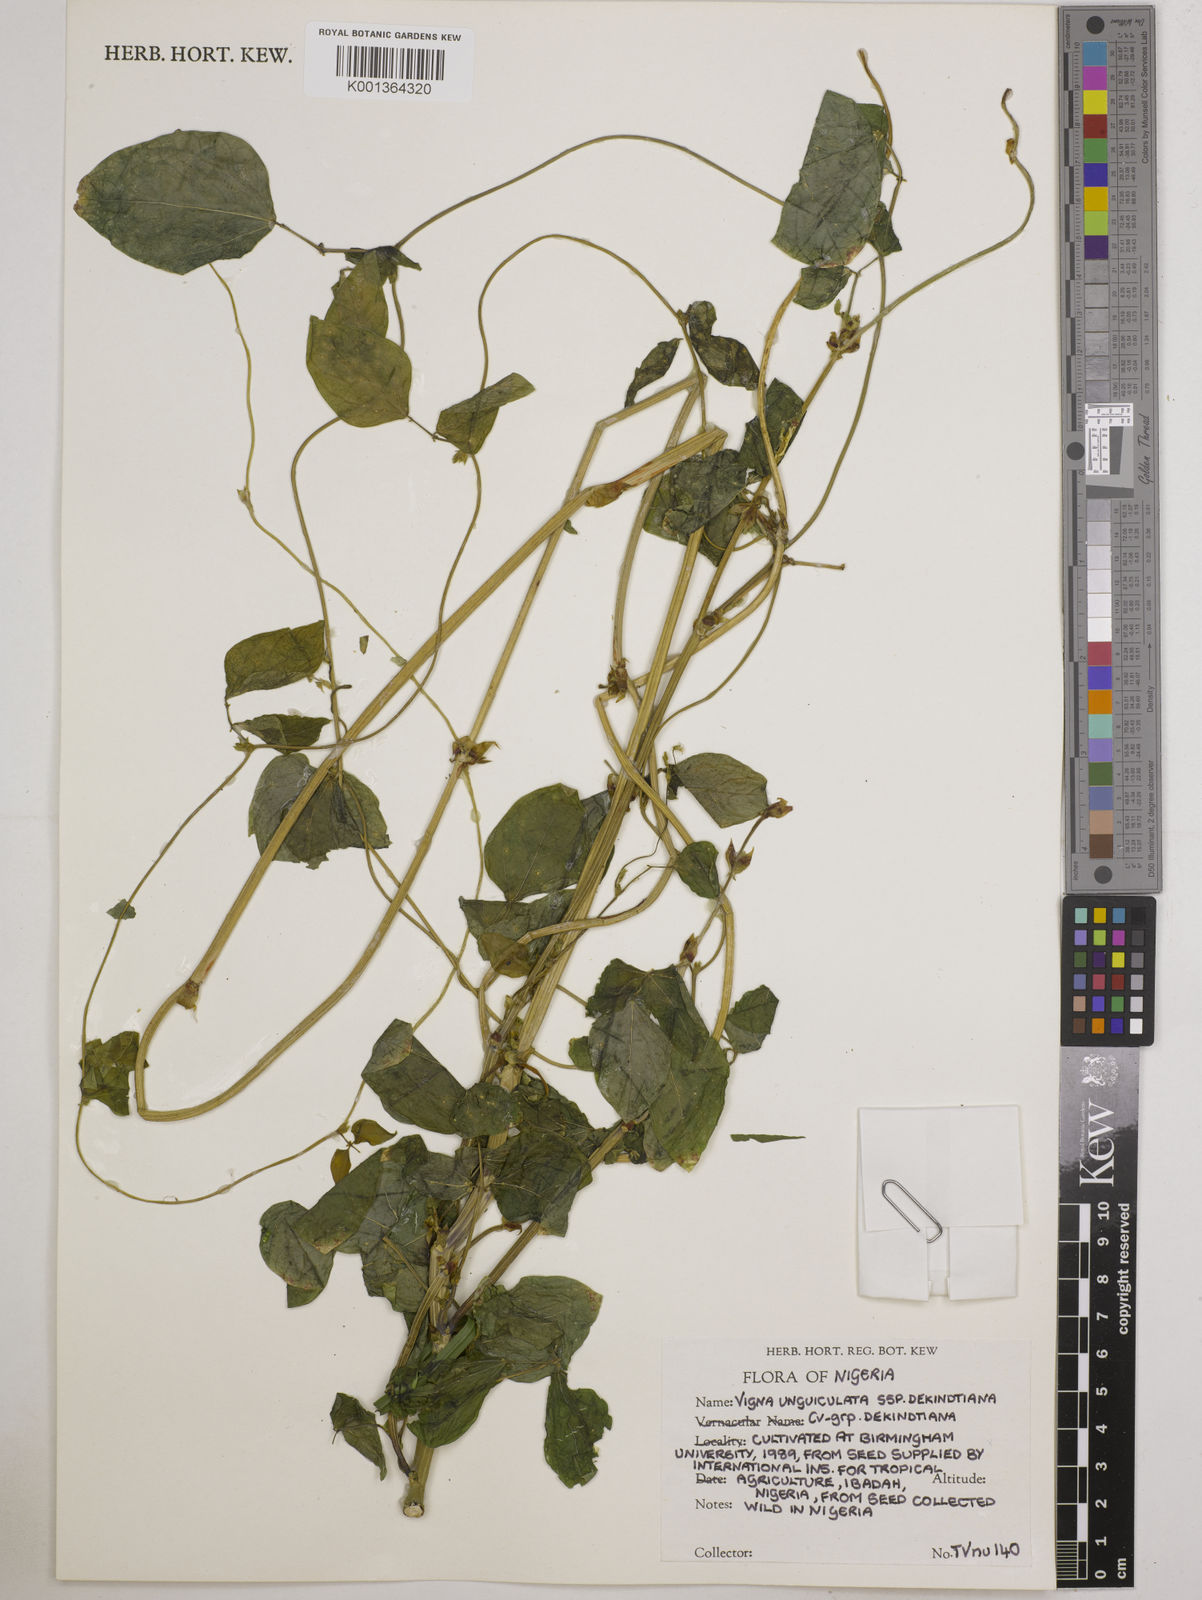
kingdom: Plantae
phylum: Tracheophyta
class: Magnoliopsida
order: Fabales
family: Fabaceae
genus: Vigna
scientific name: Vigna
